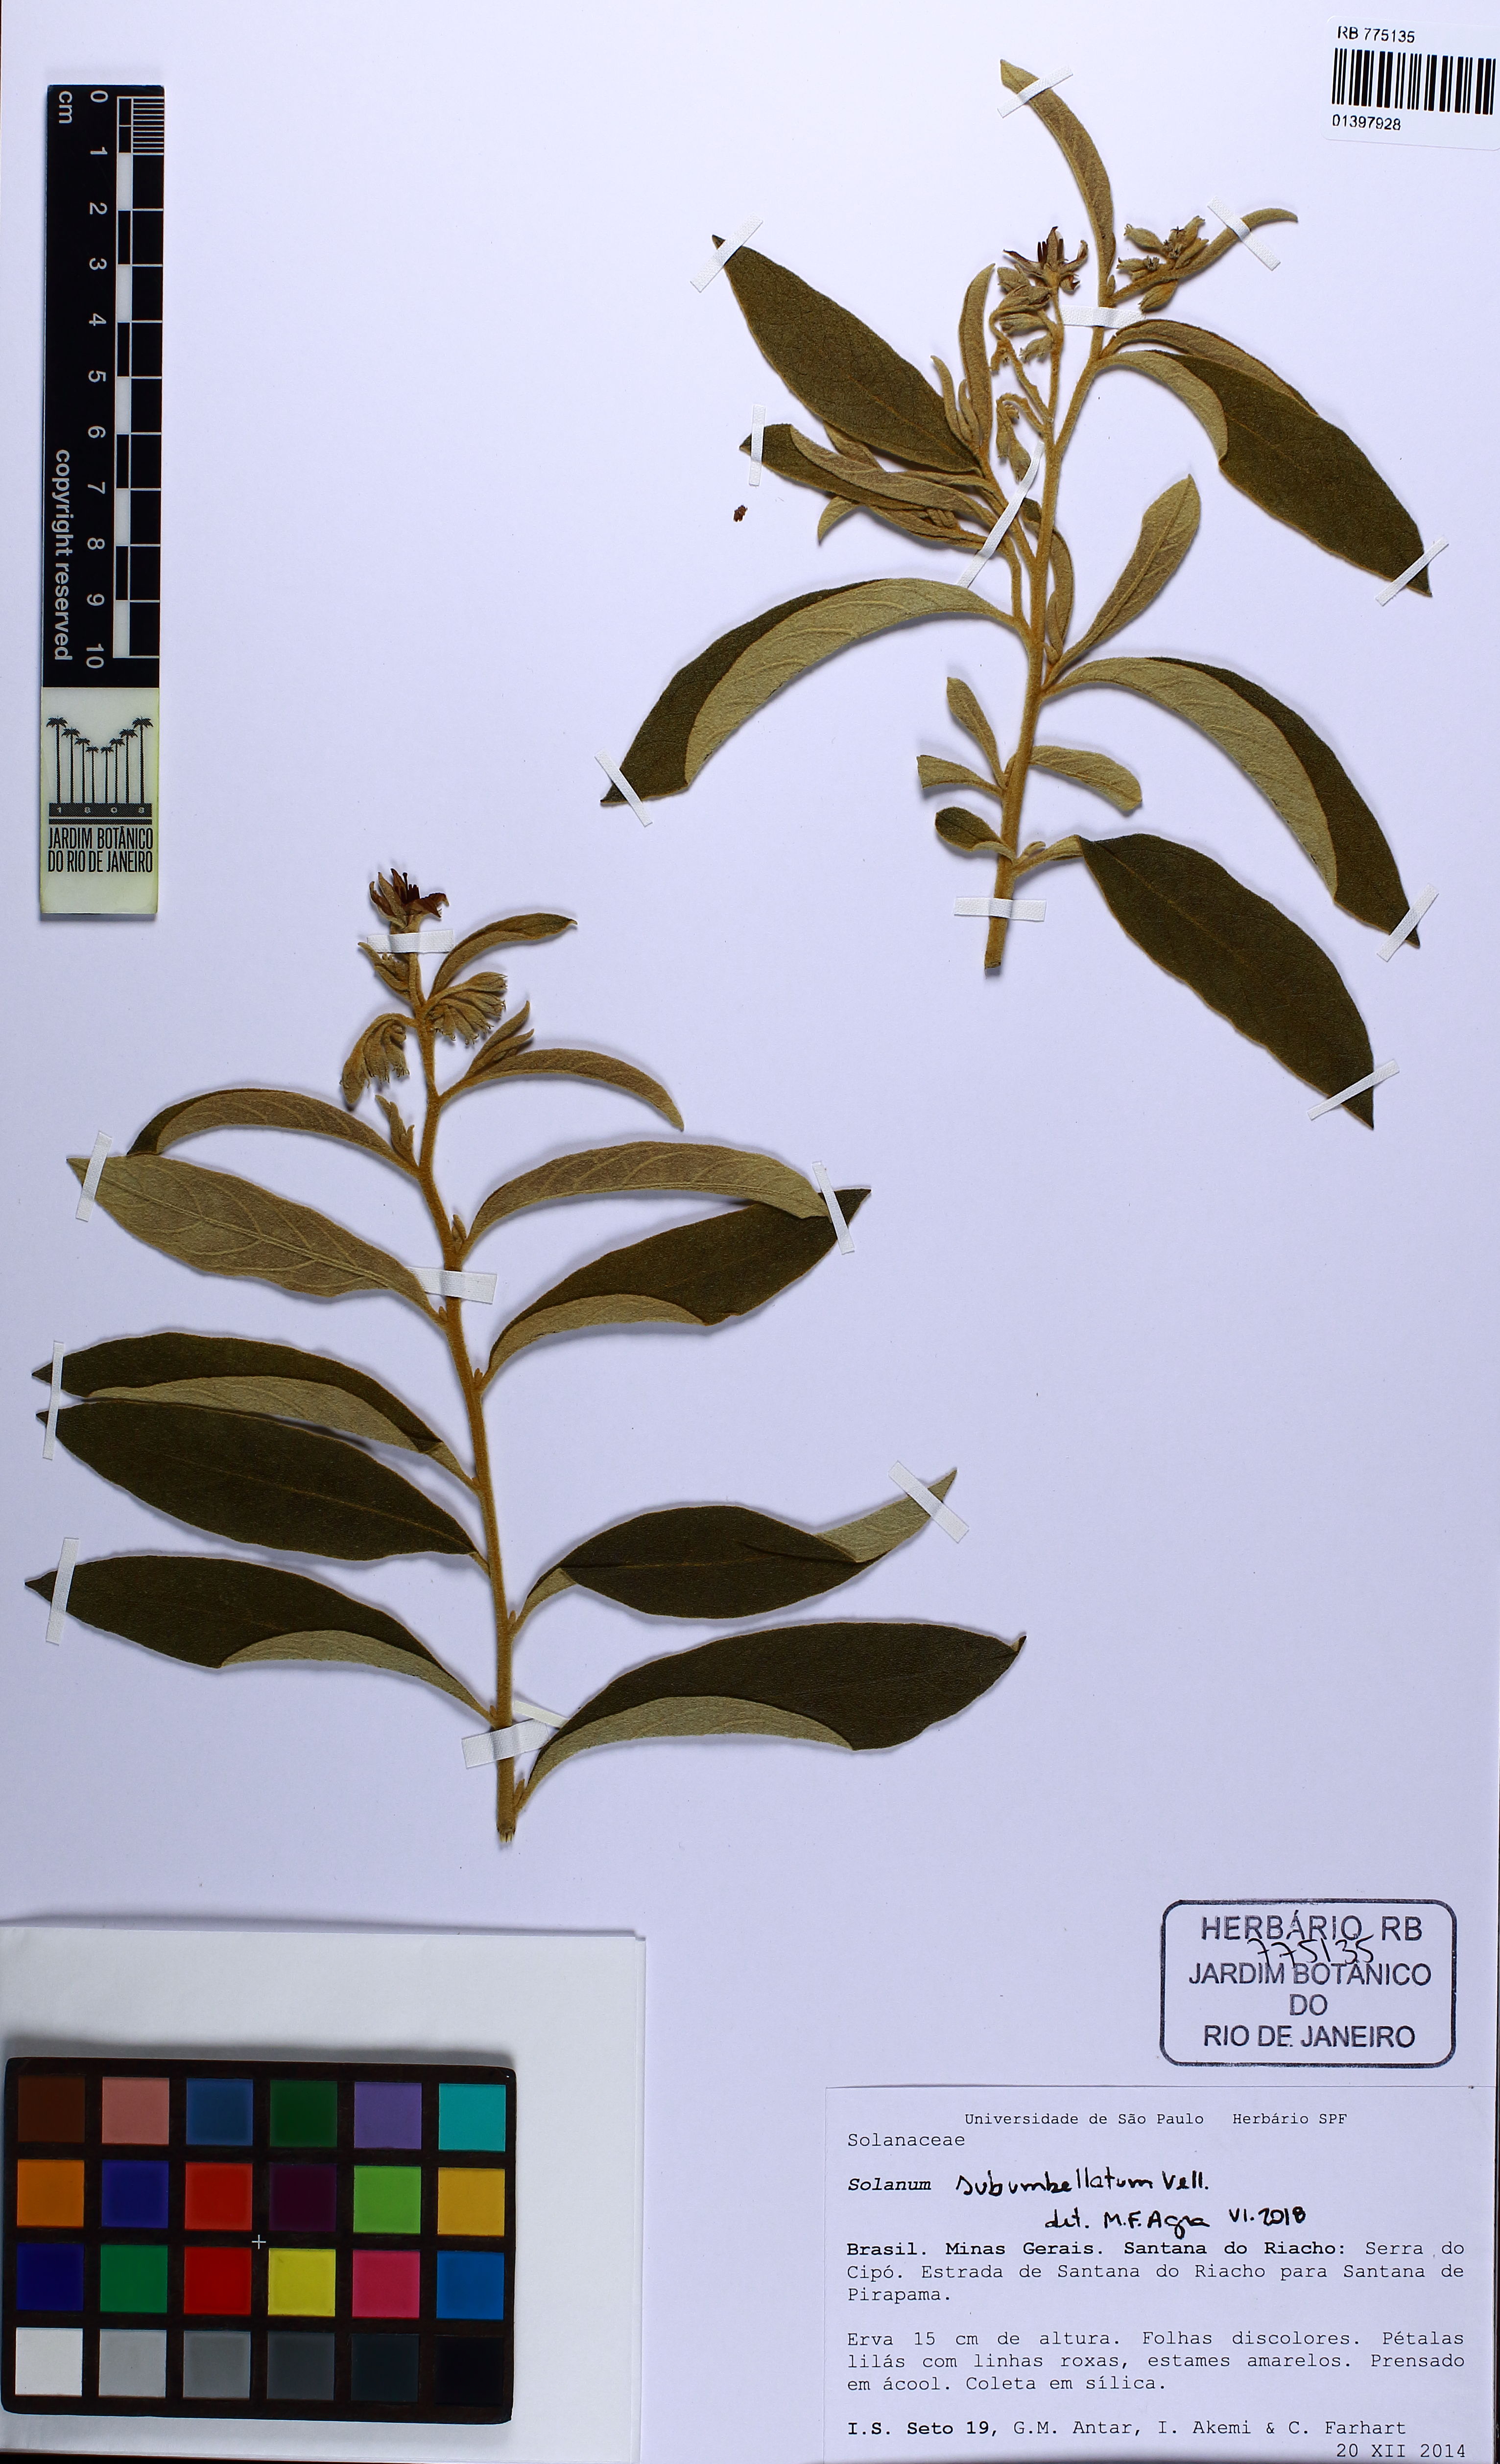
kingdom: Plantae
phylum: Tracheophyta
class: Magnoliopsida
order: Solanales
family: Solanaceae
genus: Solanum
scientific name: Solanum subumbellatum
